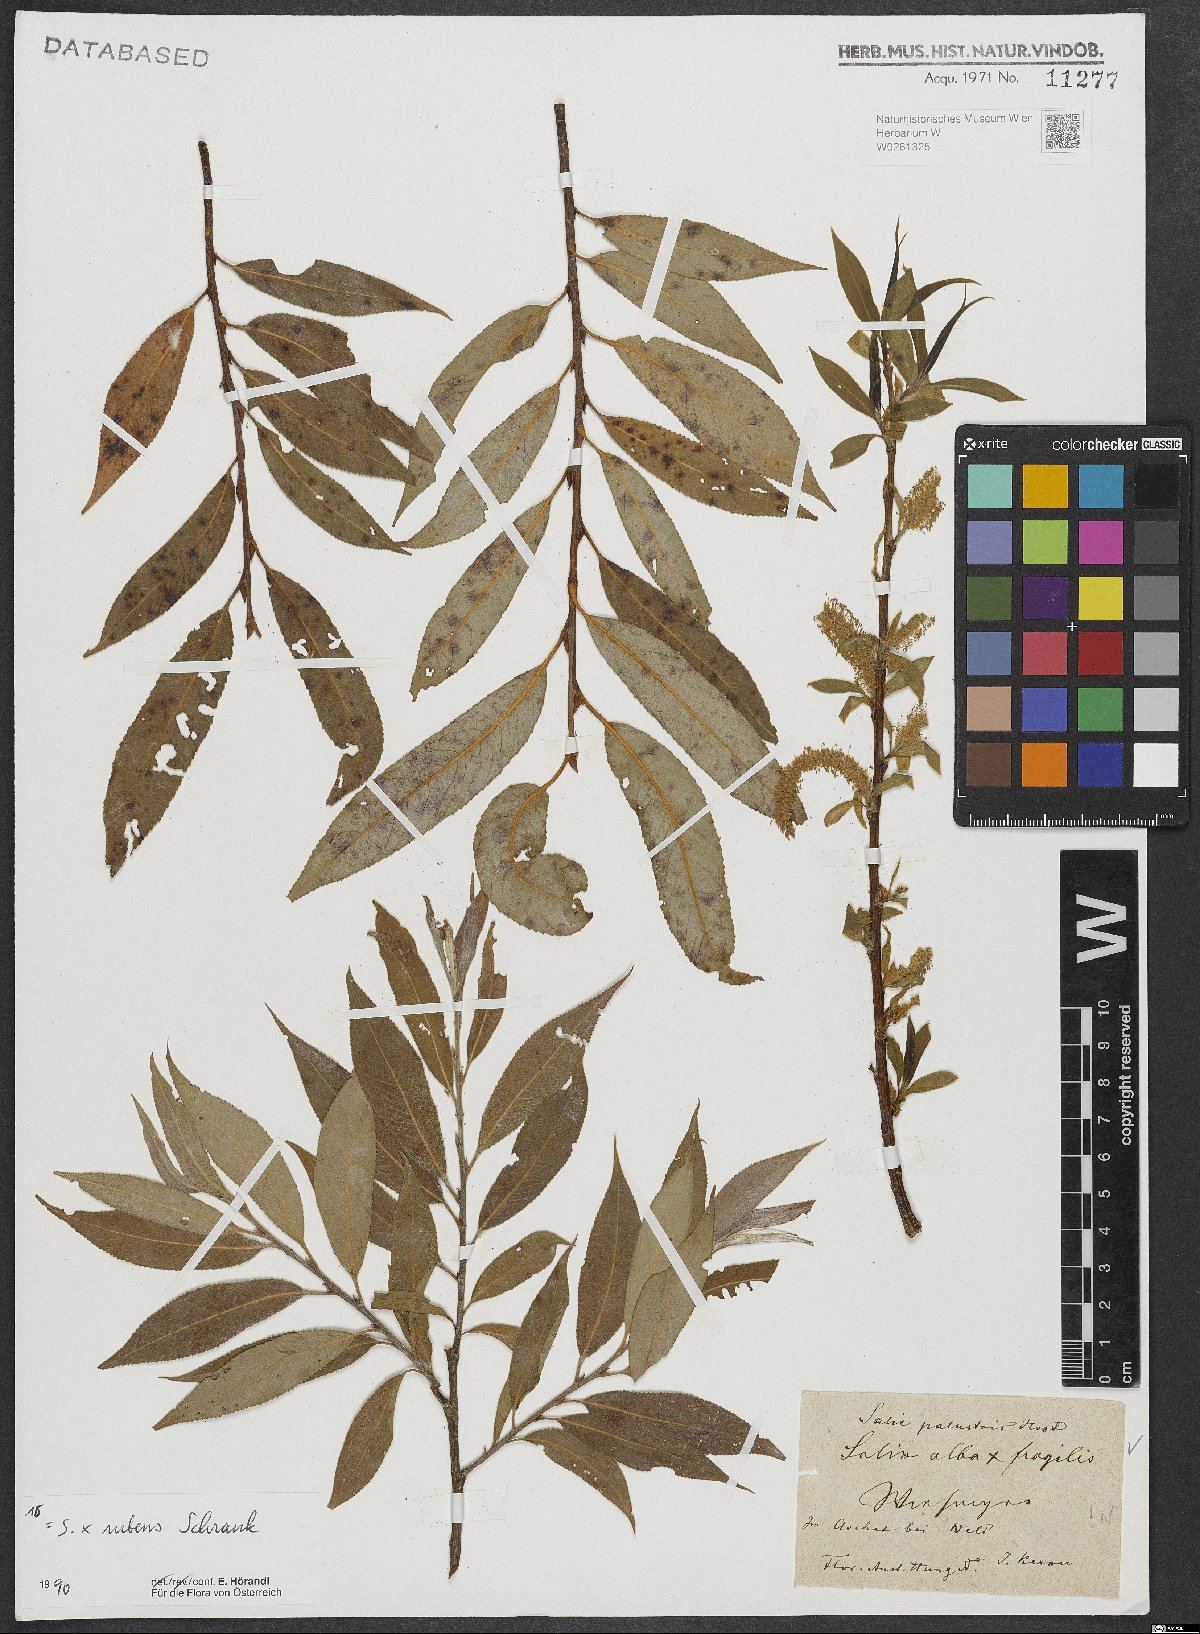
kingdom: Plantae
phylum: Tracheophyta
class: Magnoliopsida
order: Malpighiales
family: Salicaceae
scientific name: Salicaceae
